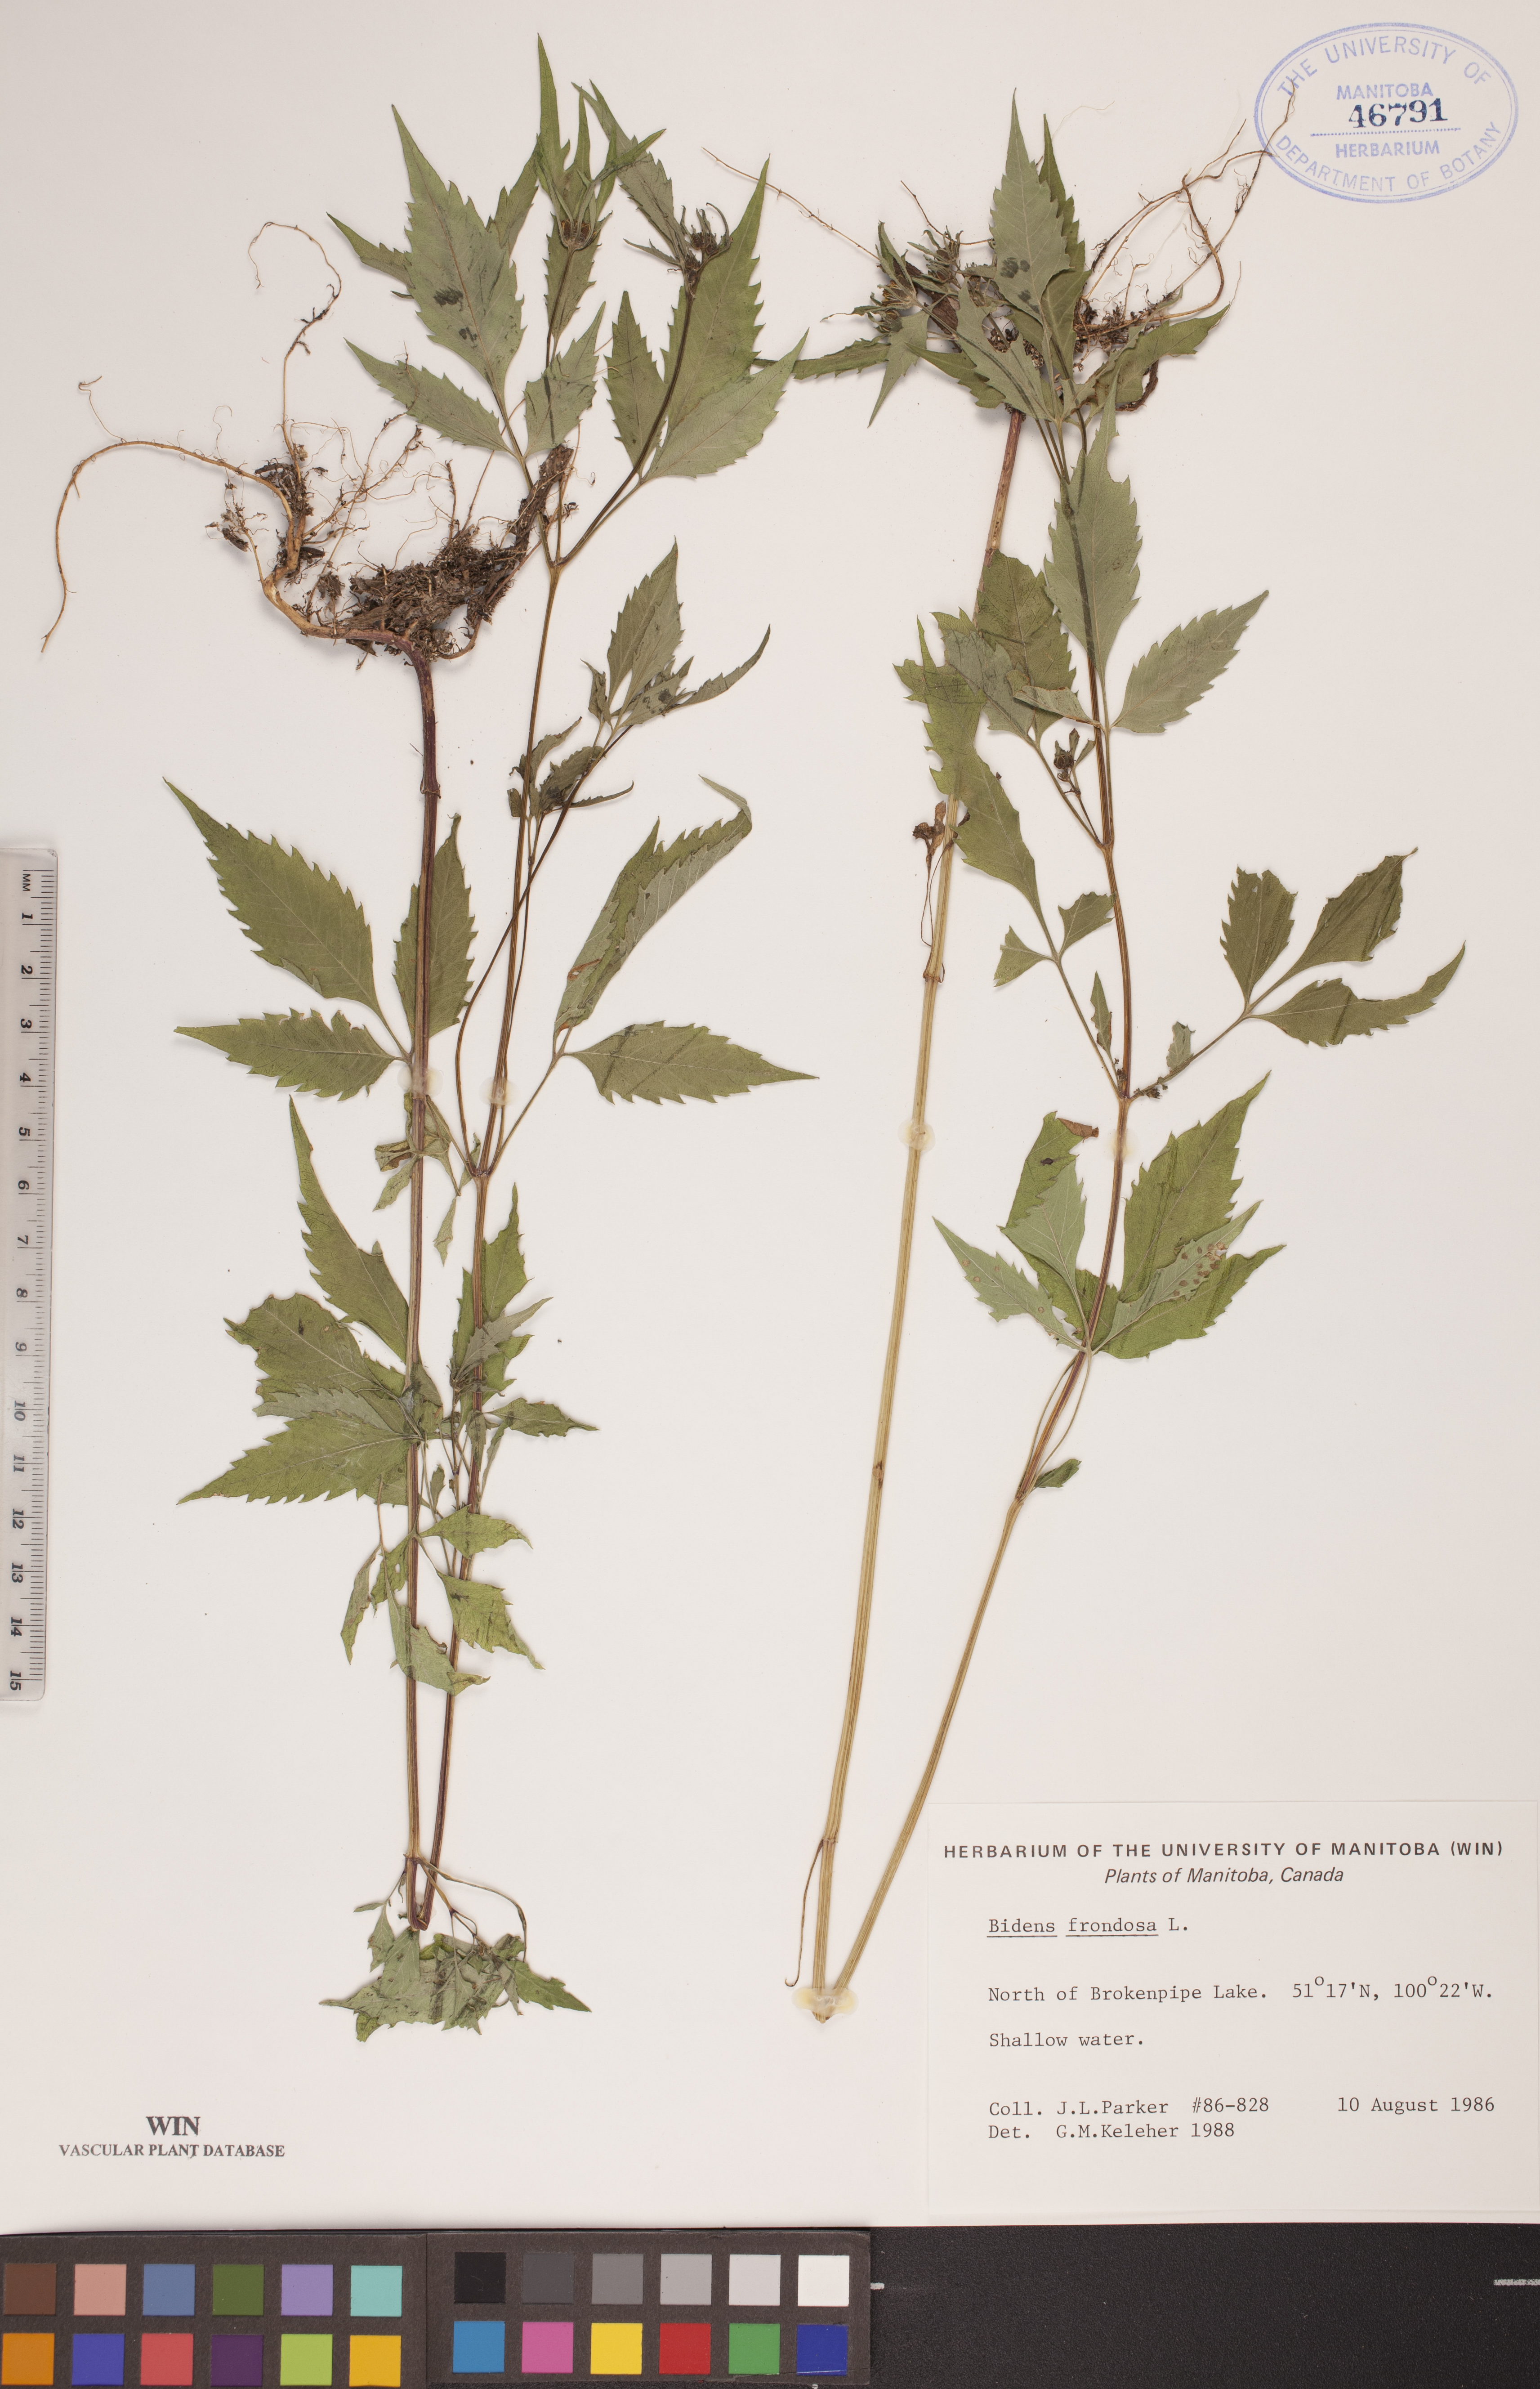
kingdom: Plantae
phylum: Tracheophyta
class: Magnoliopsida
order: Asterales
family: Asteraceae
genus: Bidens
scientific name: Bidens frondosa
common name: Beggarticks
